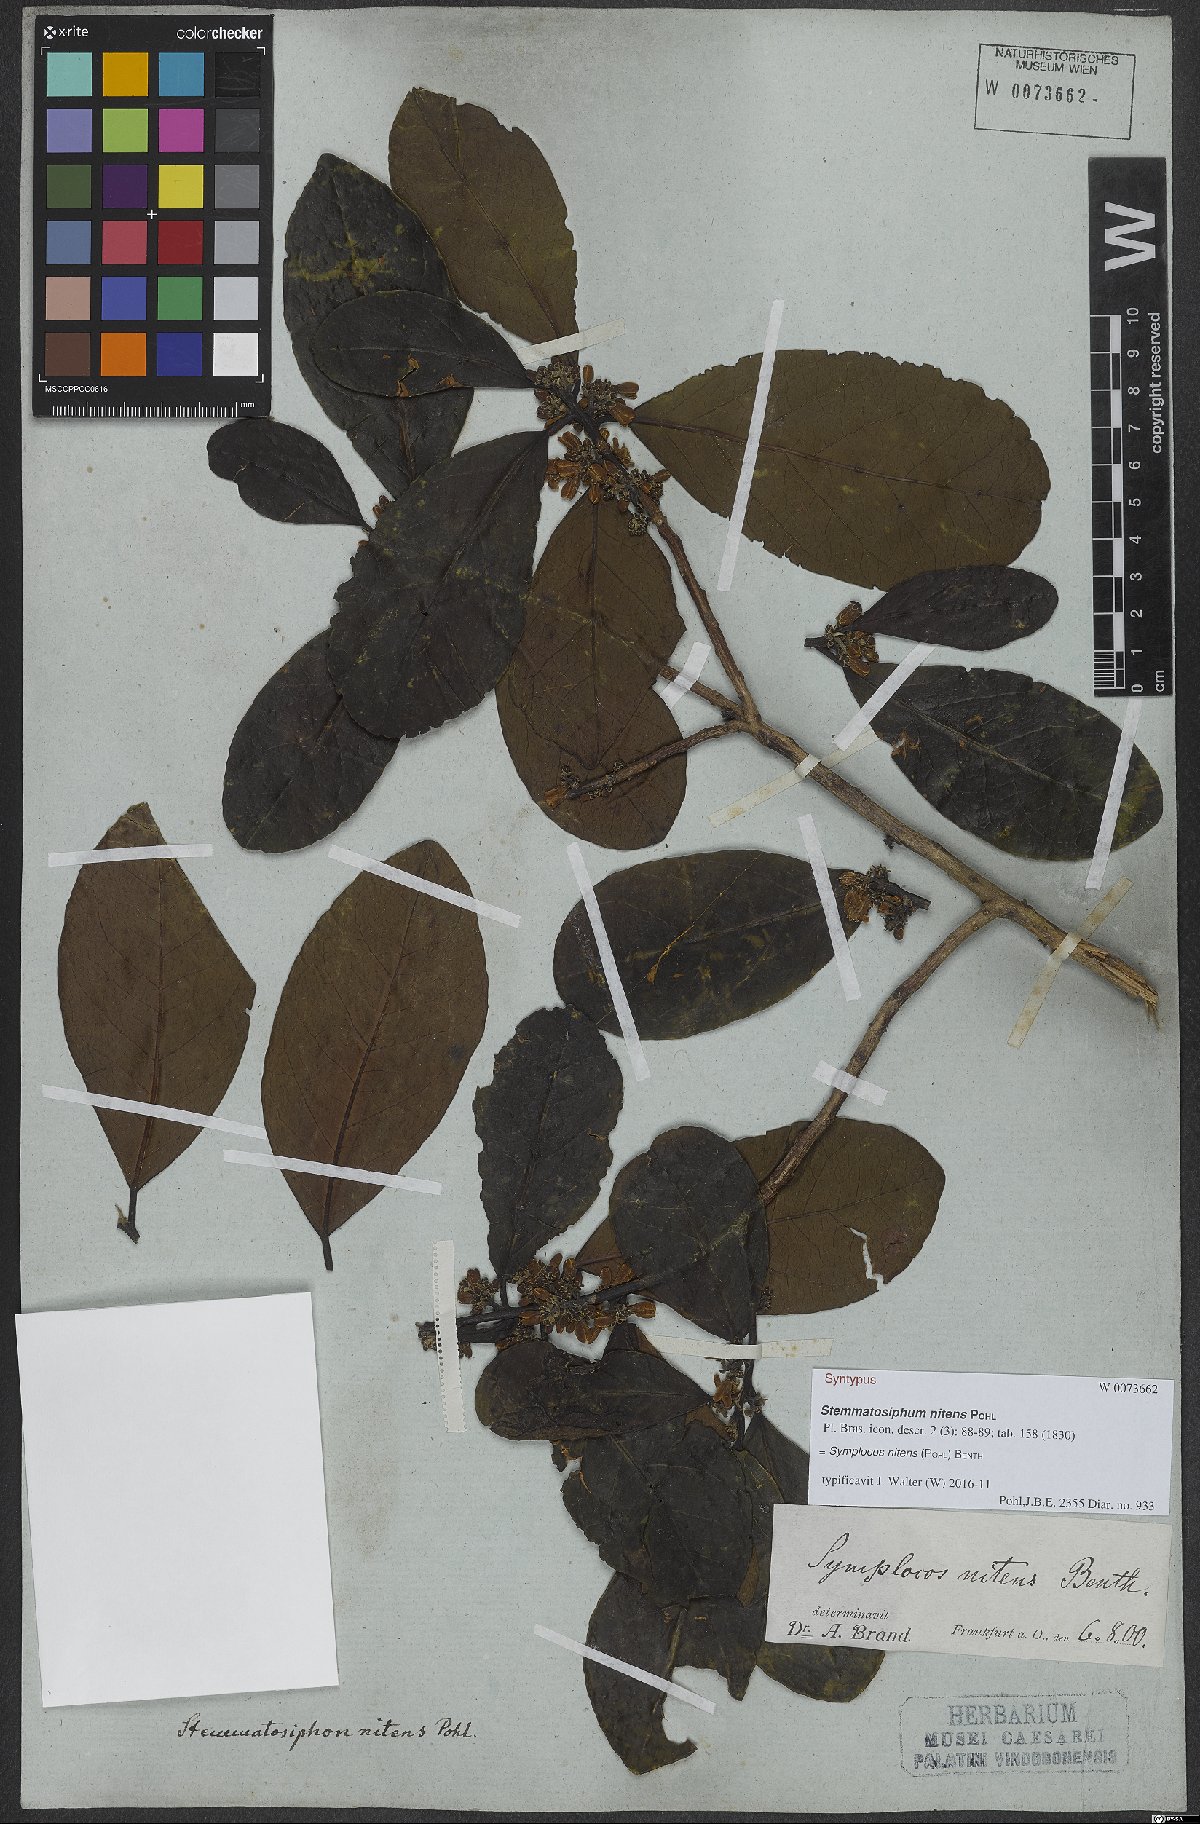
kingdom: Plantae
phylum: Tracheophyta
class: Magnoliopsida
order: Ericales
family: Symplocaceae
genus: Symplocos
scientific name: Symplocos nitens
